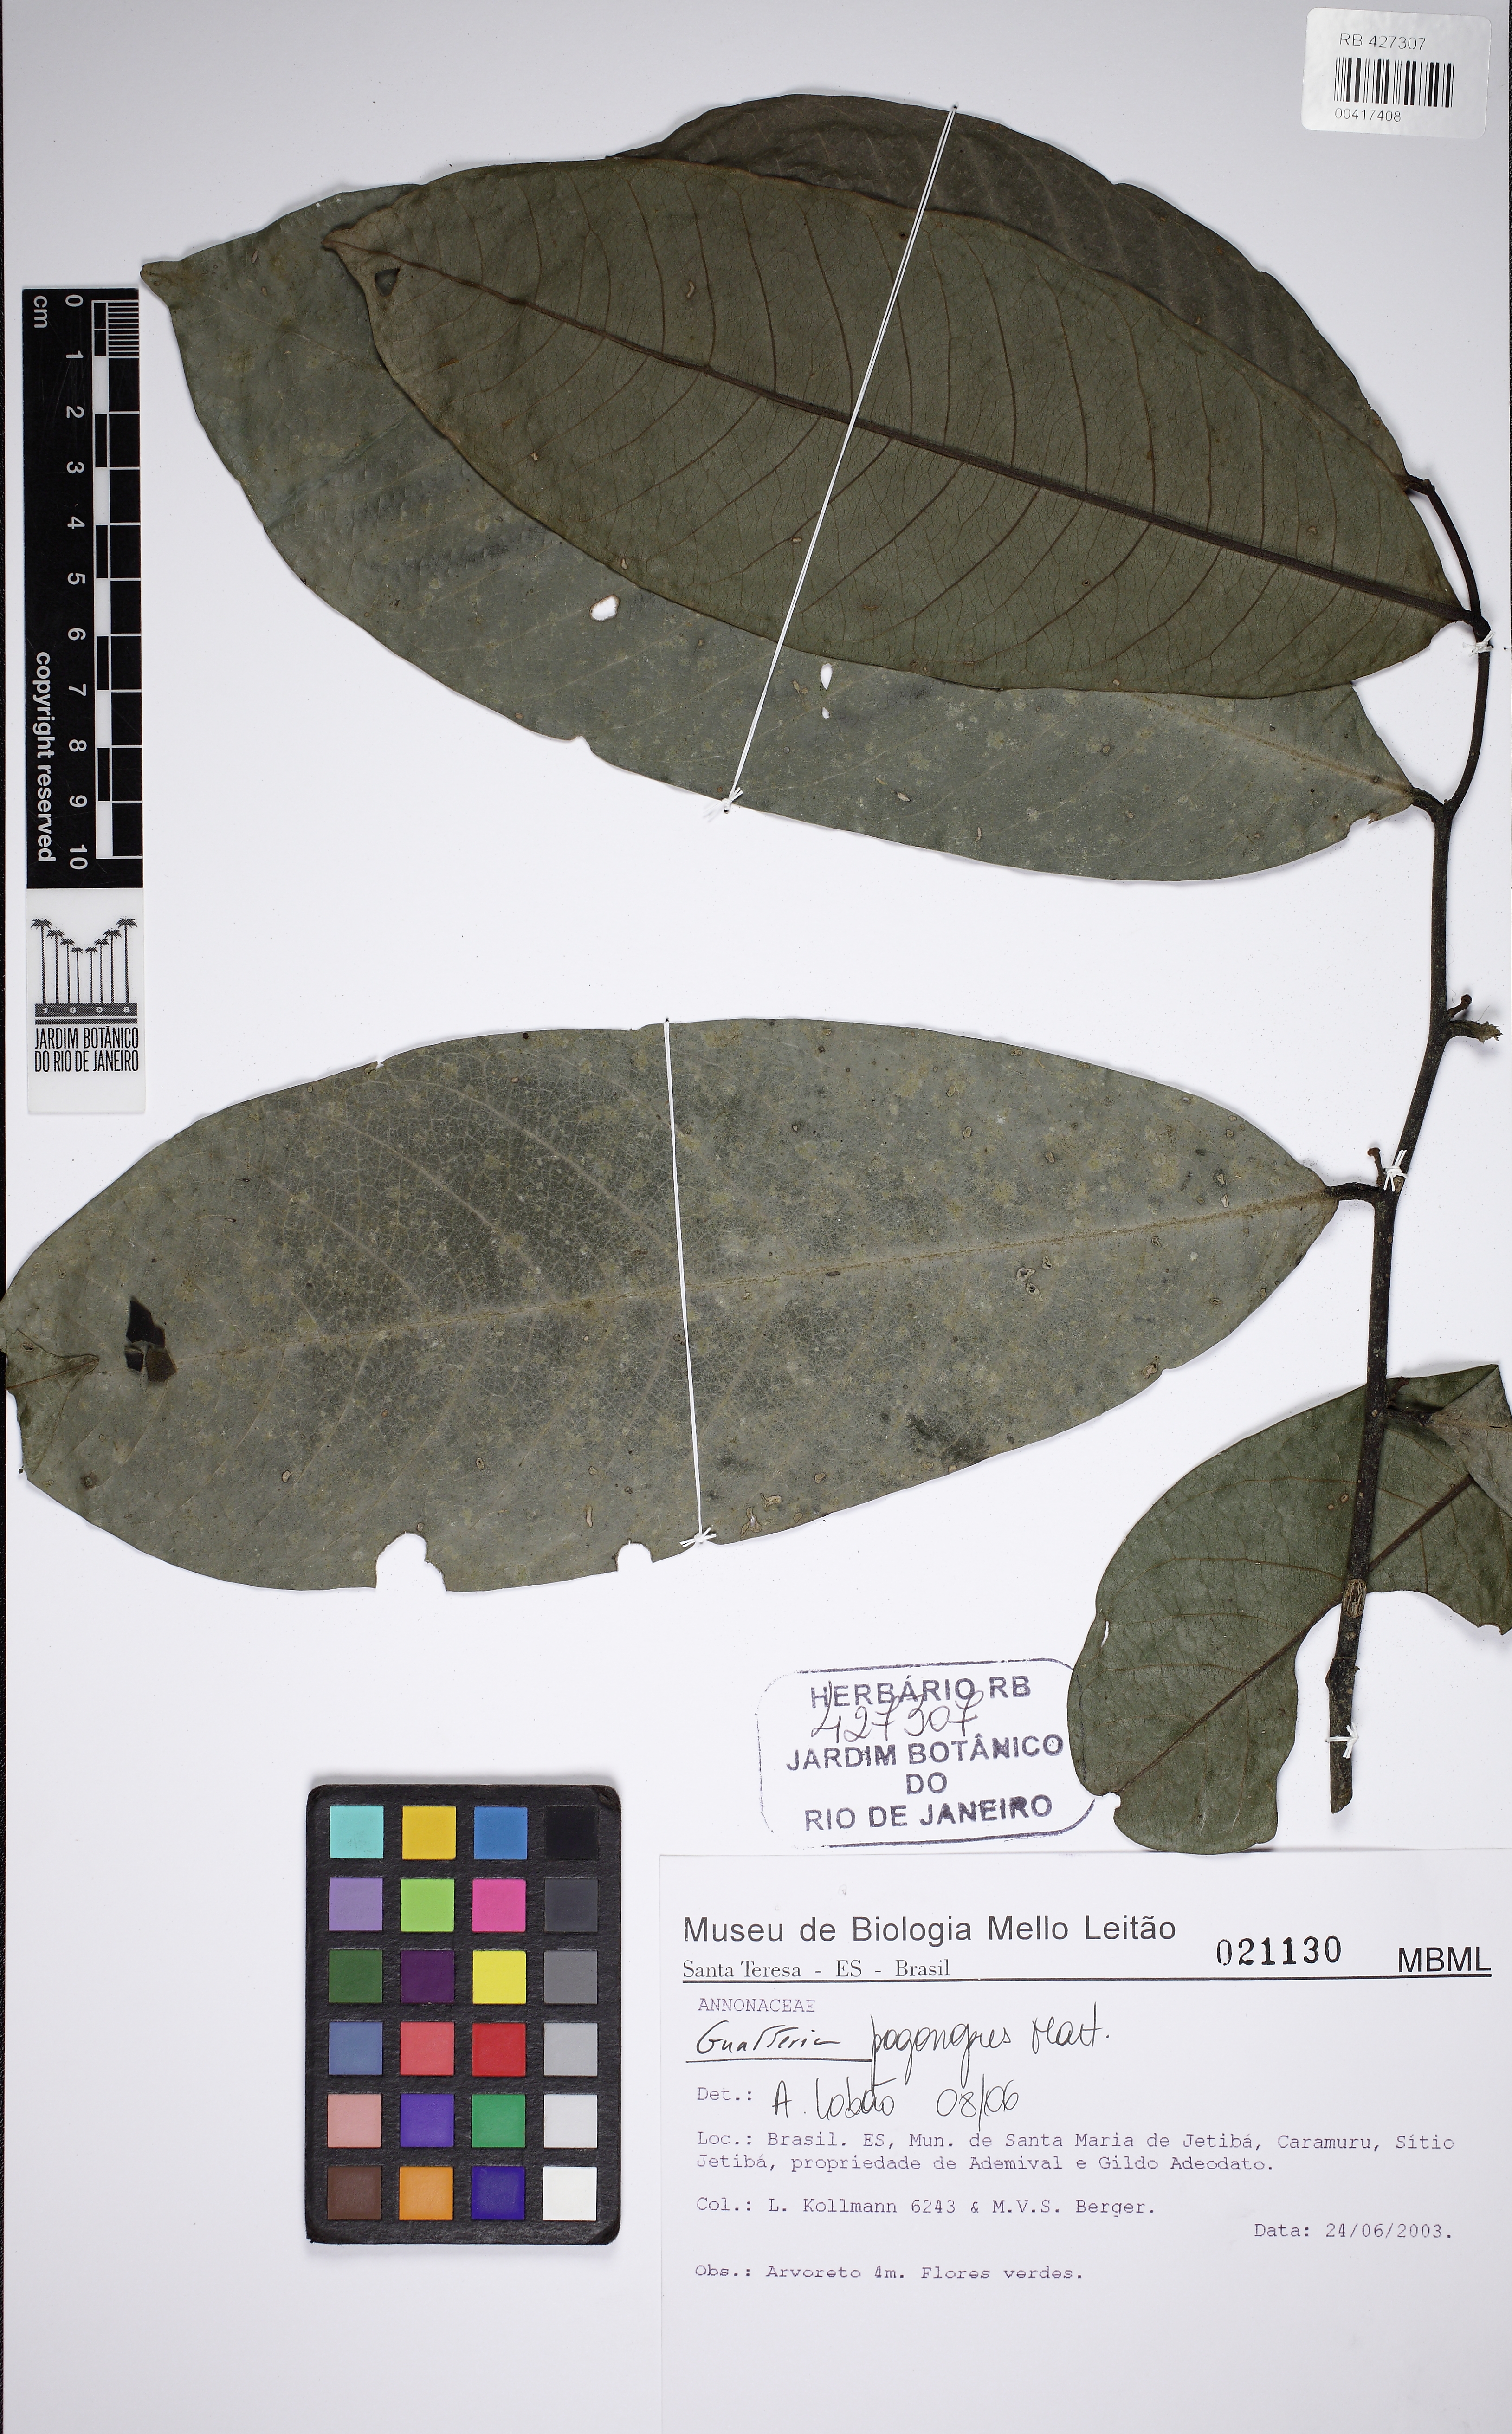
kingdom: Plantae
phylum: Tracheophyta
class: Magnoliopsida
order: Magnoliales
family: Annonaceae
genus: Guatteria
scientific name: Guatteria pogonopus
